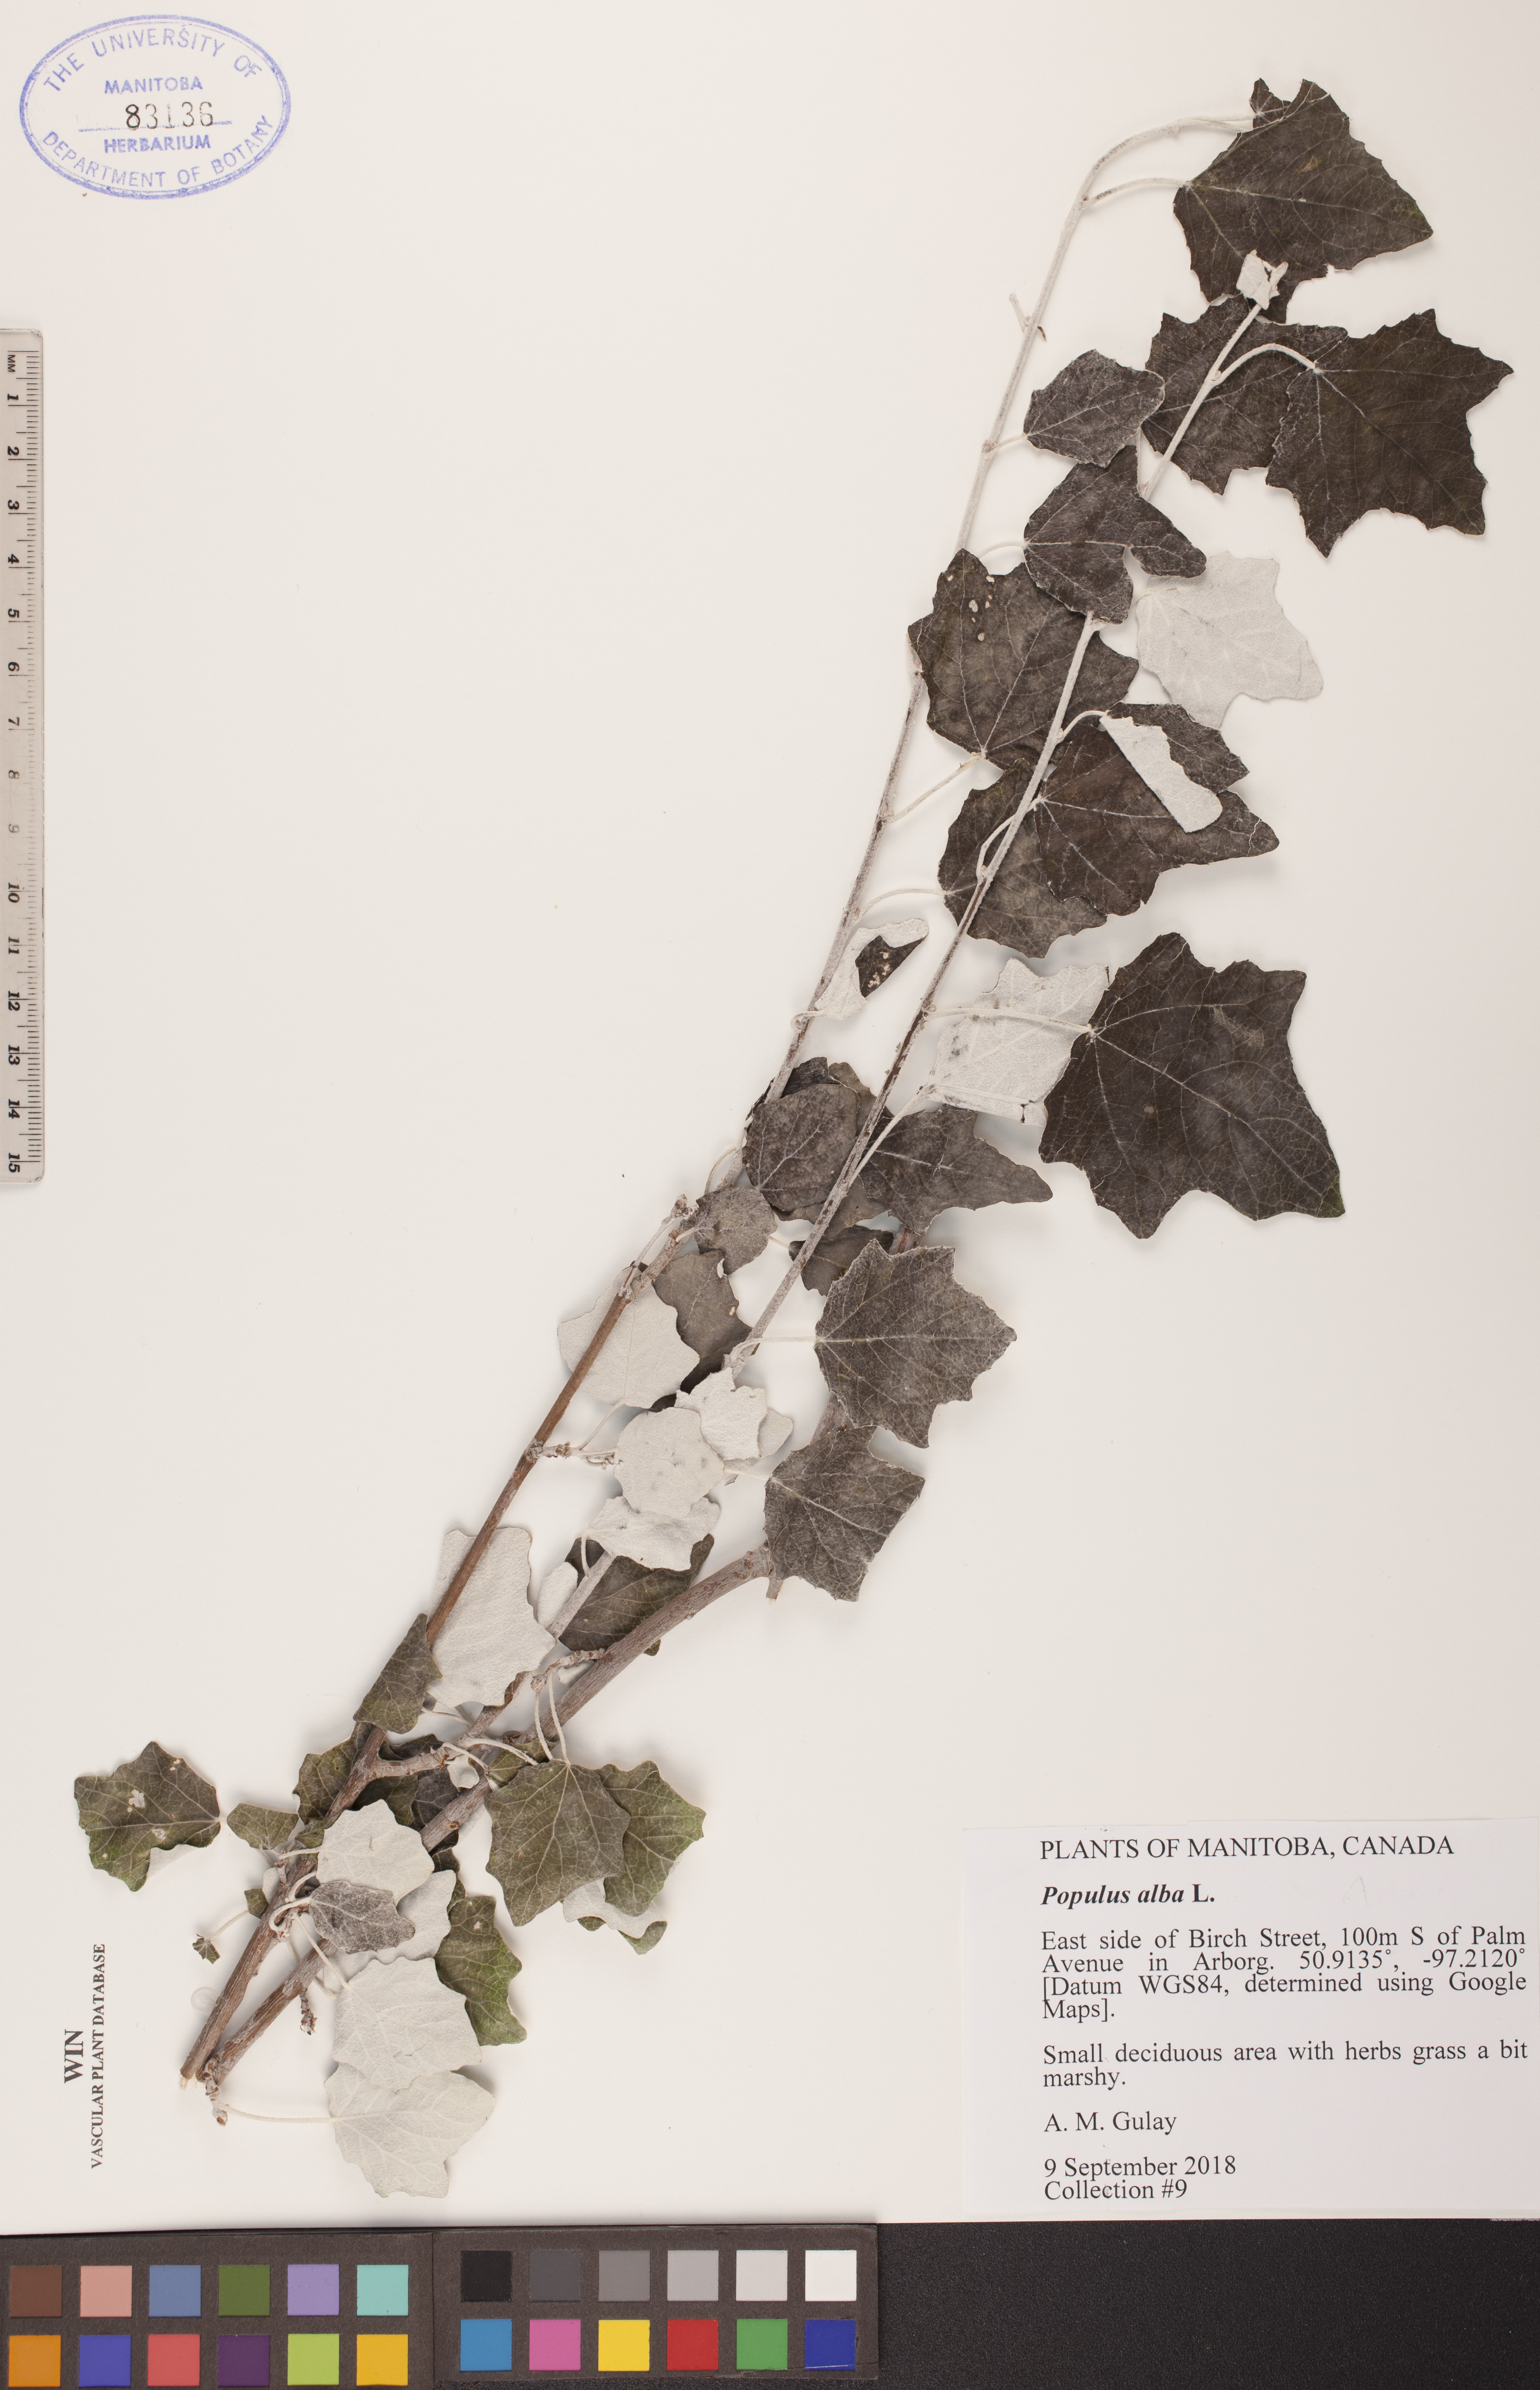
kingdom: Plantae
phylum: Tracheophyta
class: Magnoliopsida
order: Malpighiales
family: Salicaceae
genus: Populus
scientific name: Populus alba
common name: White poplar
